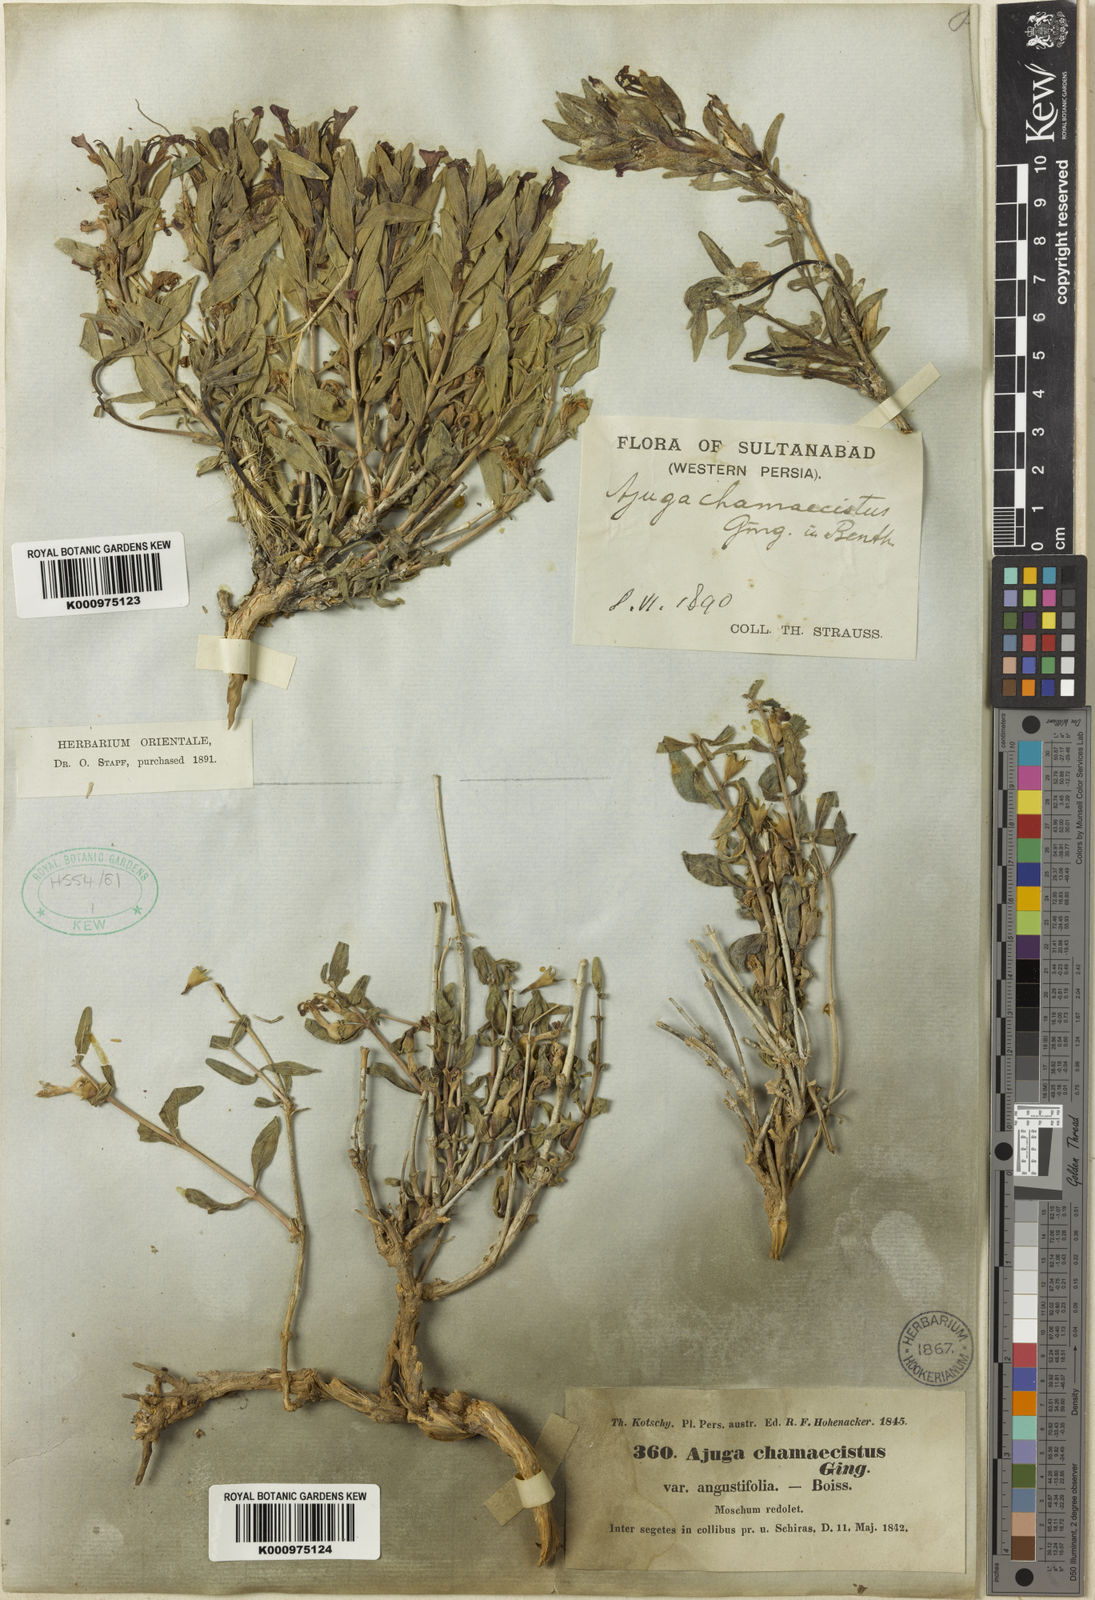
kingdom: Plantae
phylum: Tracheophyta
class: Magnoliopsida
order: Lamiales
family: Lamiaceae
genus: Ajuga
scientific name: Ajuga chamaecistus
